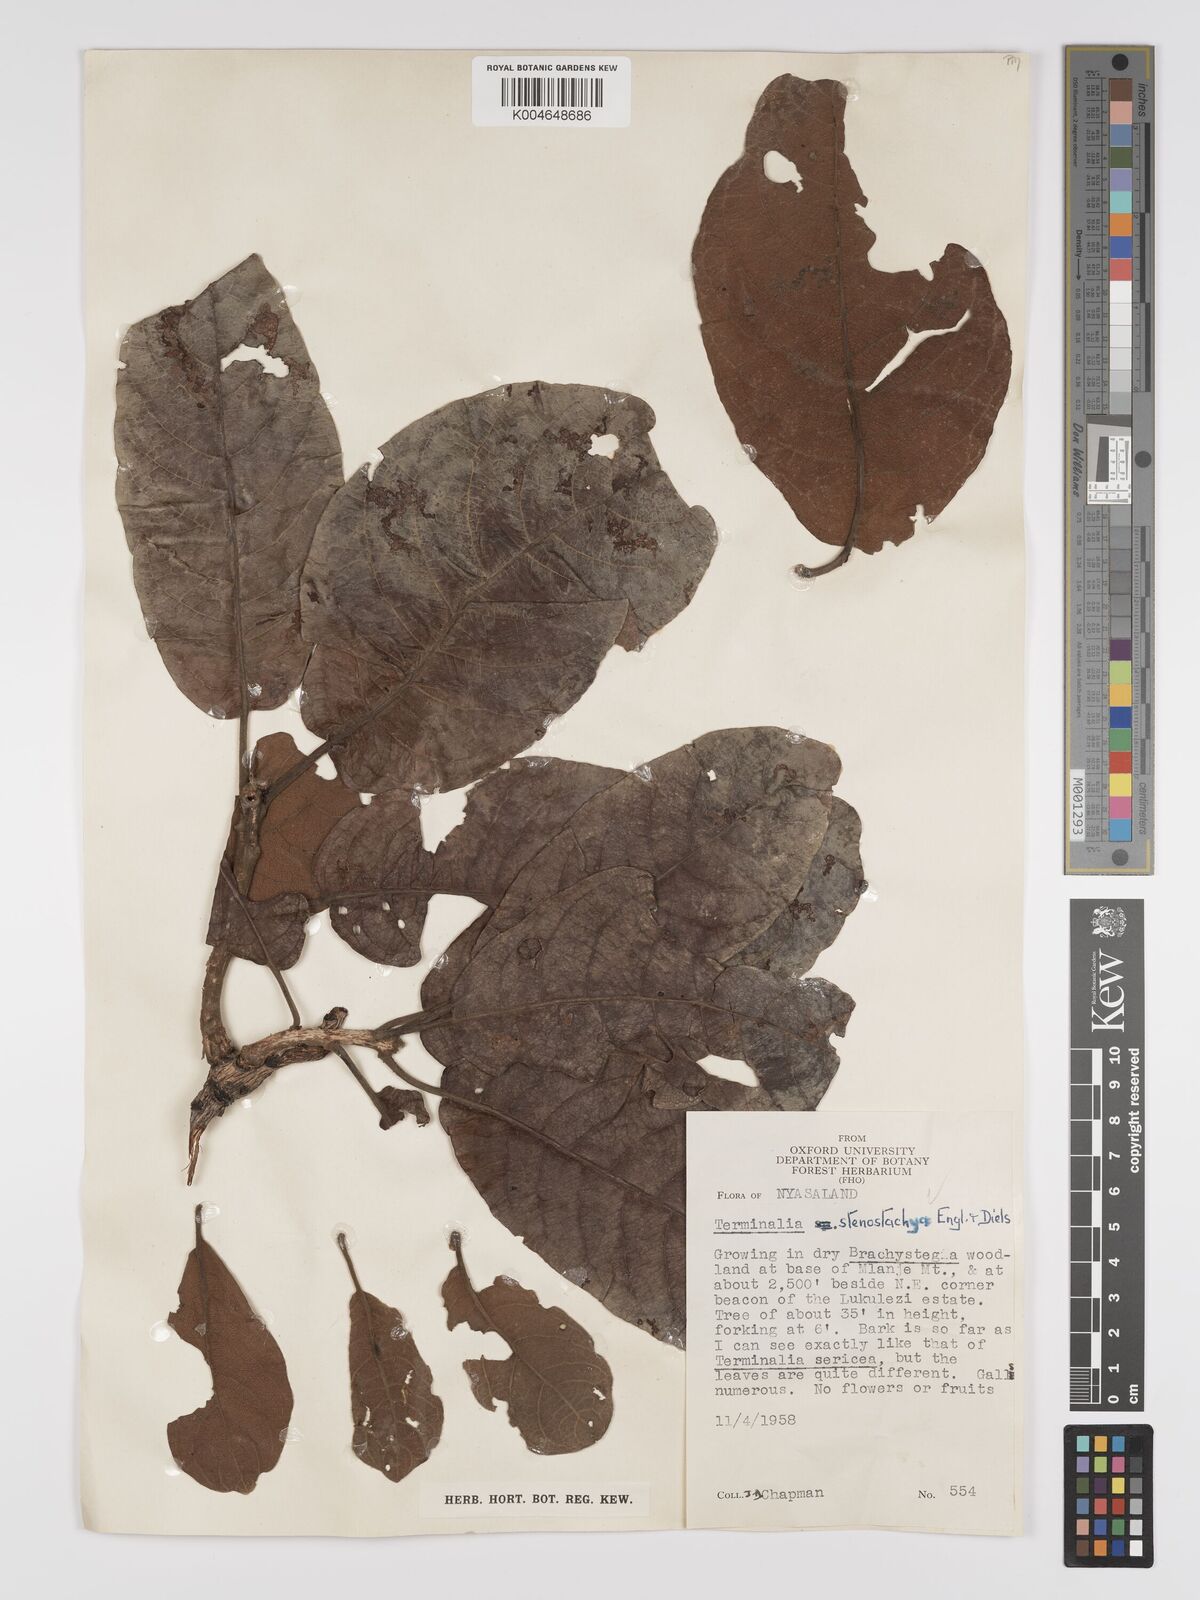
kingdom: Plantae
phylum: Tracheophyta
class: Magnoliopsida
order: Myrtales
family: Combretaceae
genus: Terminalia
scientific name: Terminalia stenostachya
